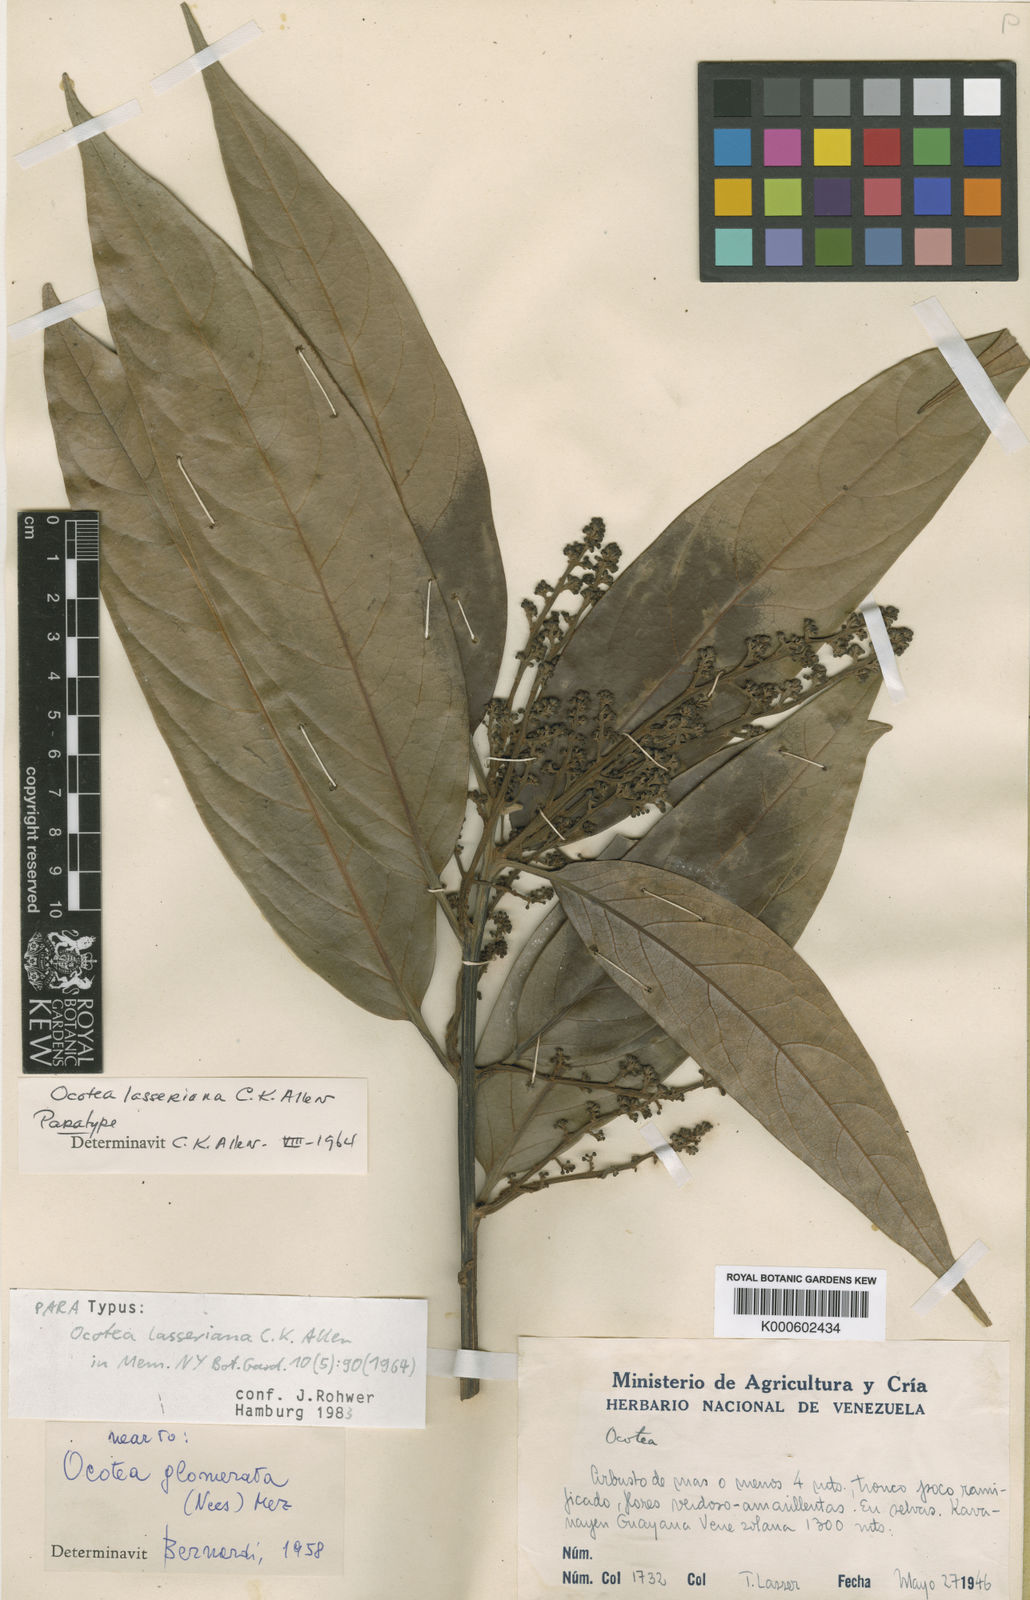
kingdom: Plantae
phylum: Tracheophyta
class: Magnoliopsida
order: Laurales
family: Lauraceae
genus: Ocotea
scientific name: Ocotea leucoxylon
